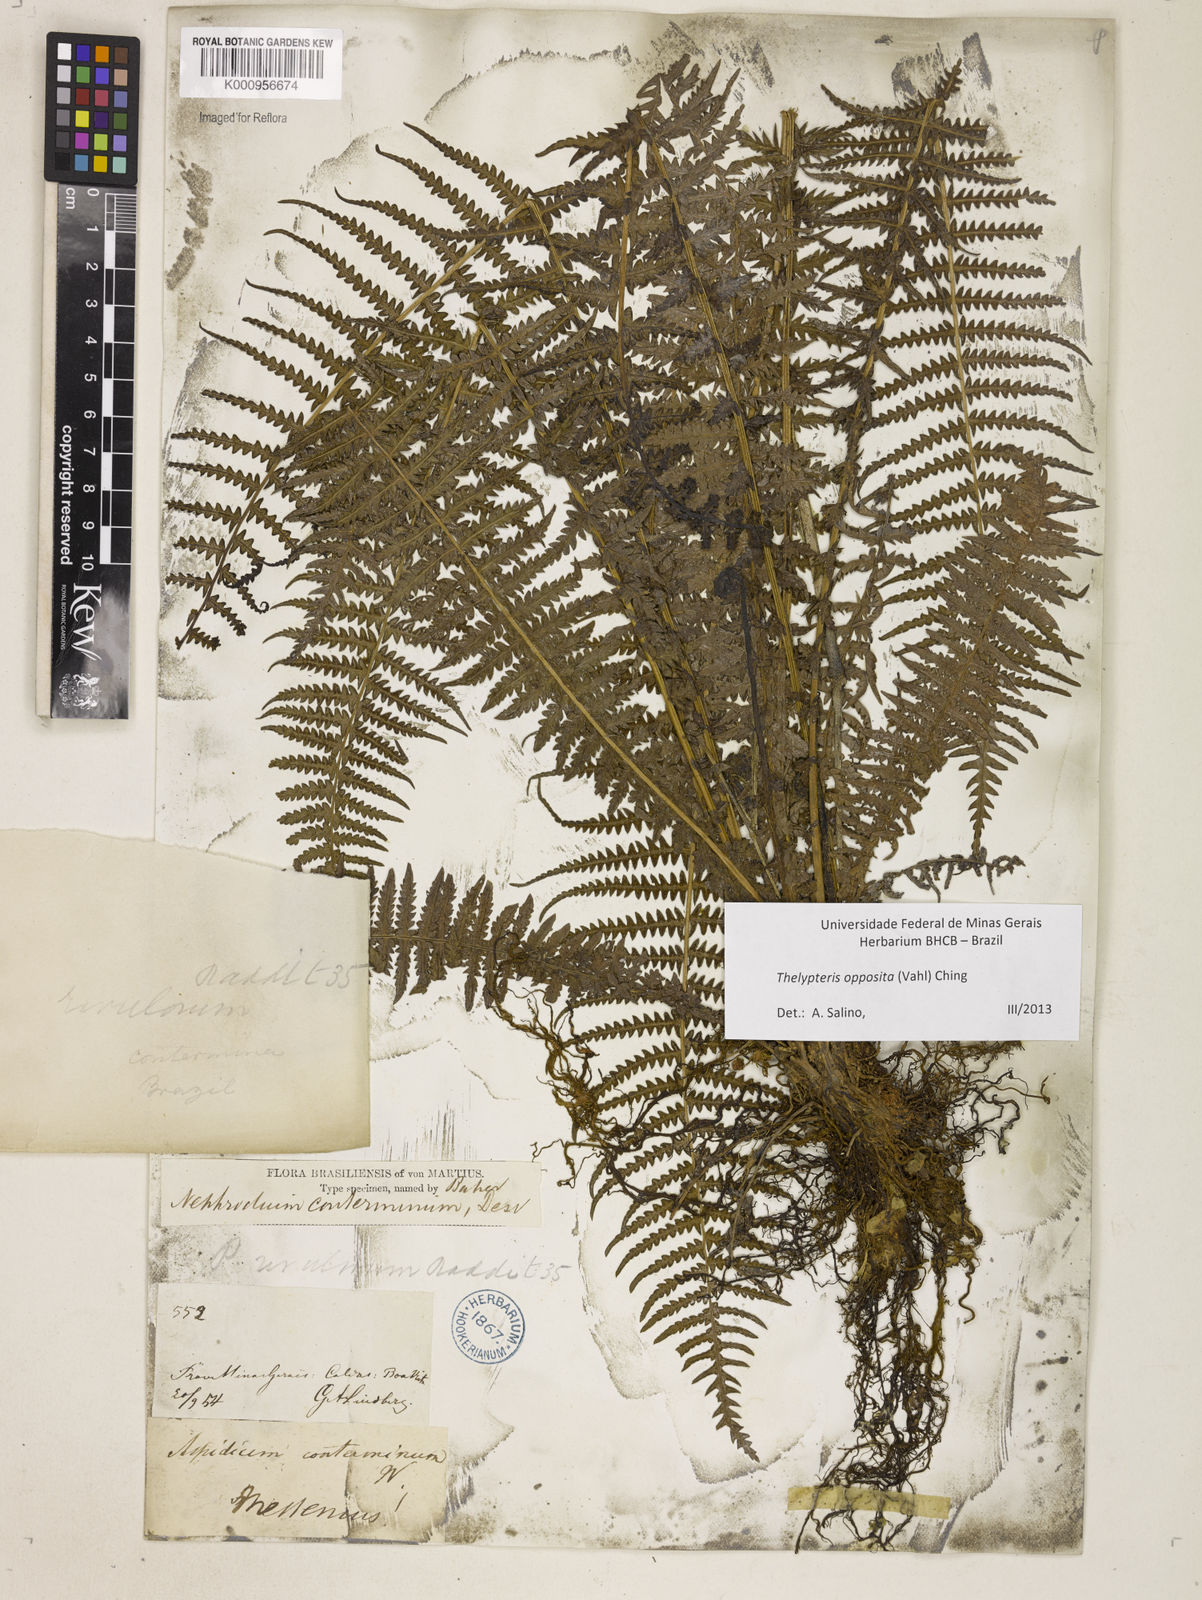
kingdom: Plantae
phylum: Tracheophyta
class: Polypodiopsida
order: Polypodiales
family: Thelypteridaceae
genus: Amauropelta
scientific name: Amauropelta opposita
